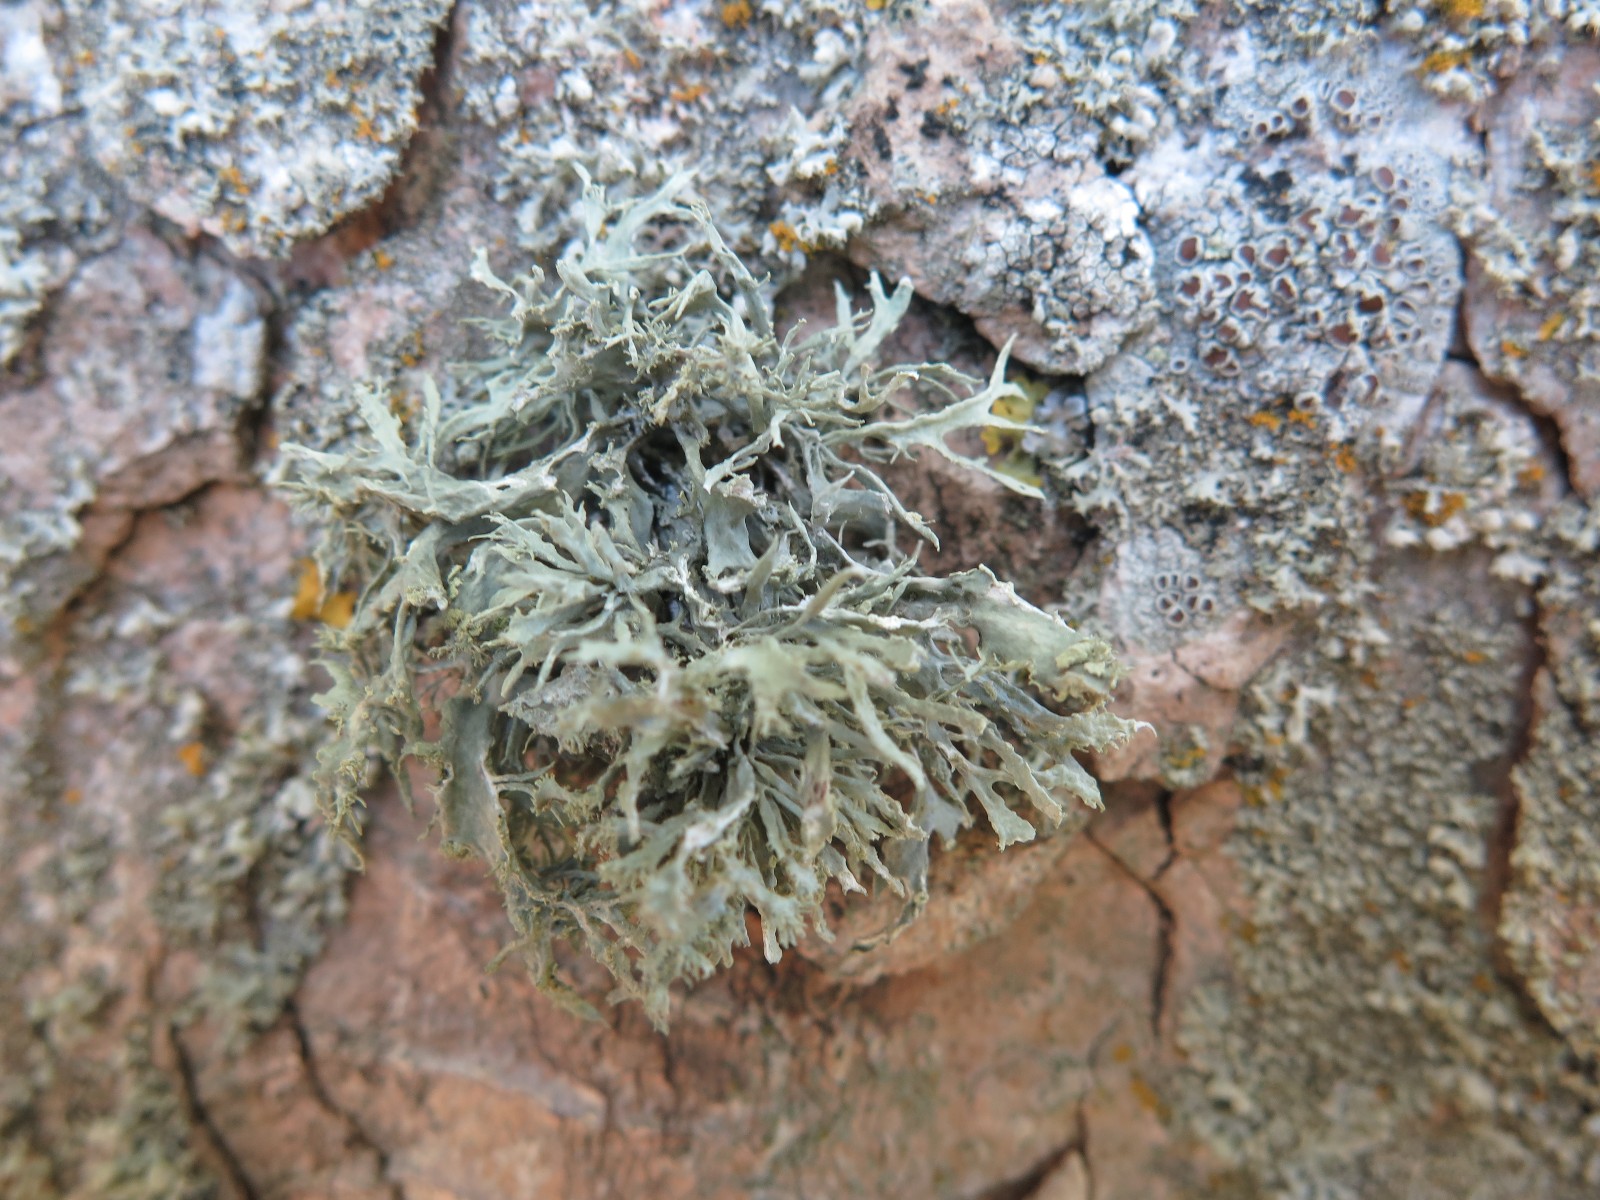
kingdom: Fungi
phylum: Ascomycota
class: Lecanoromycetes
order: Lecanorales
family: Ramalinaceae
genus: Ramalina
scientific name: Ramalina farinacea
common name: melet grenlav
